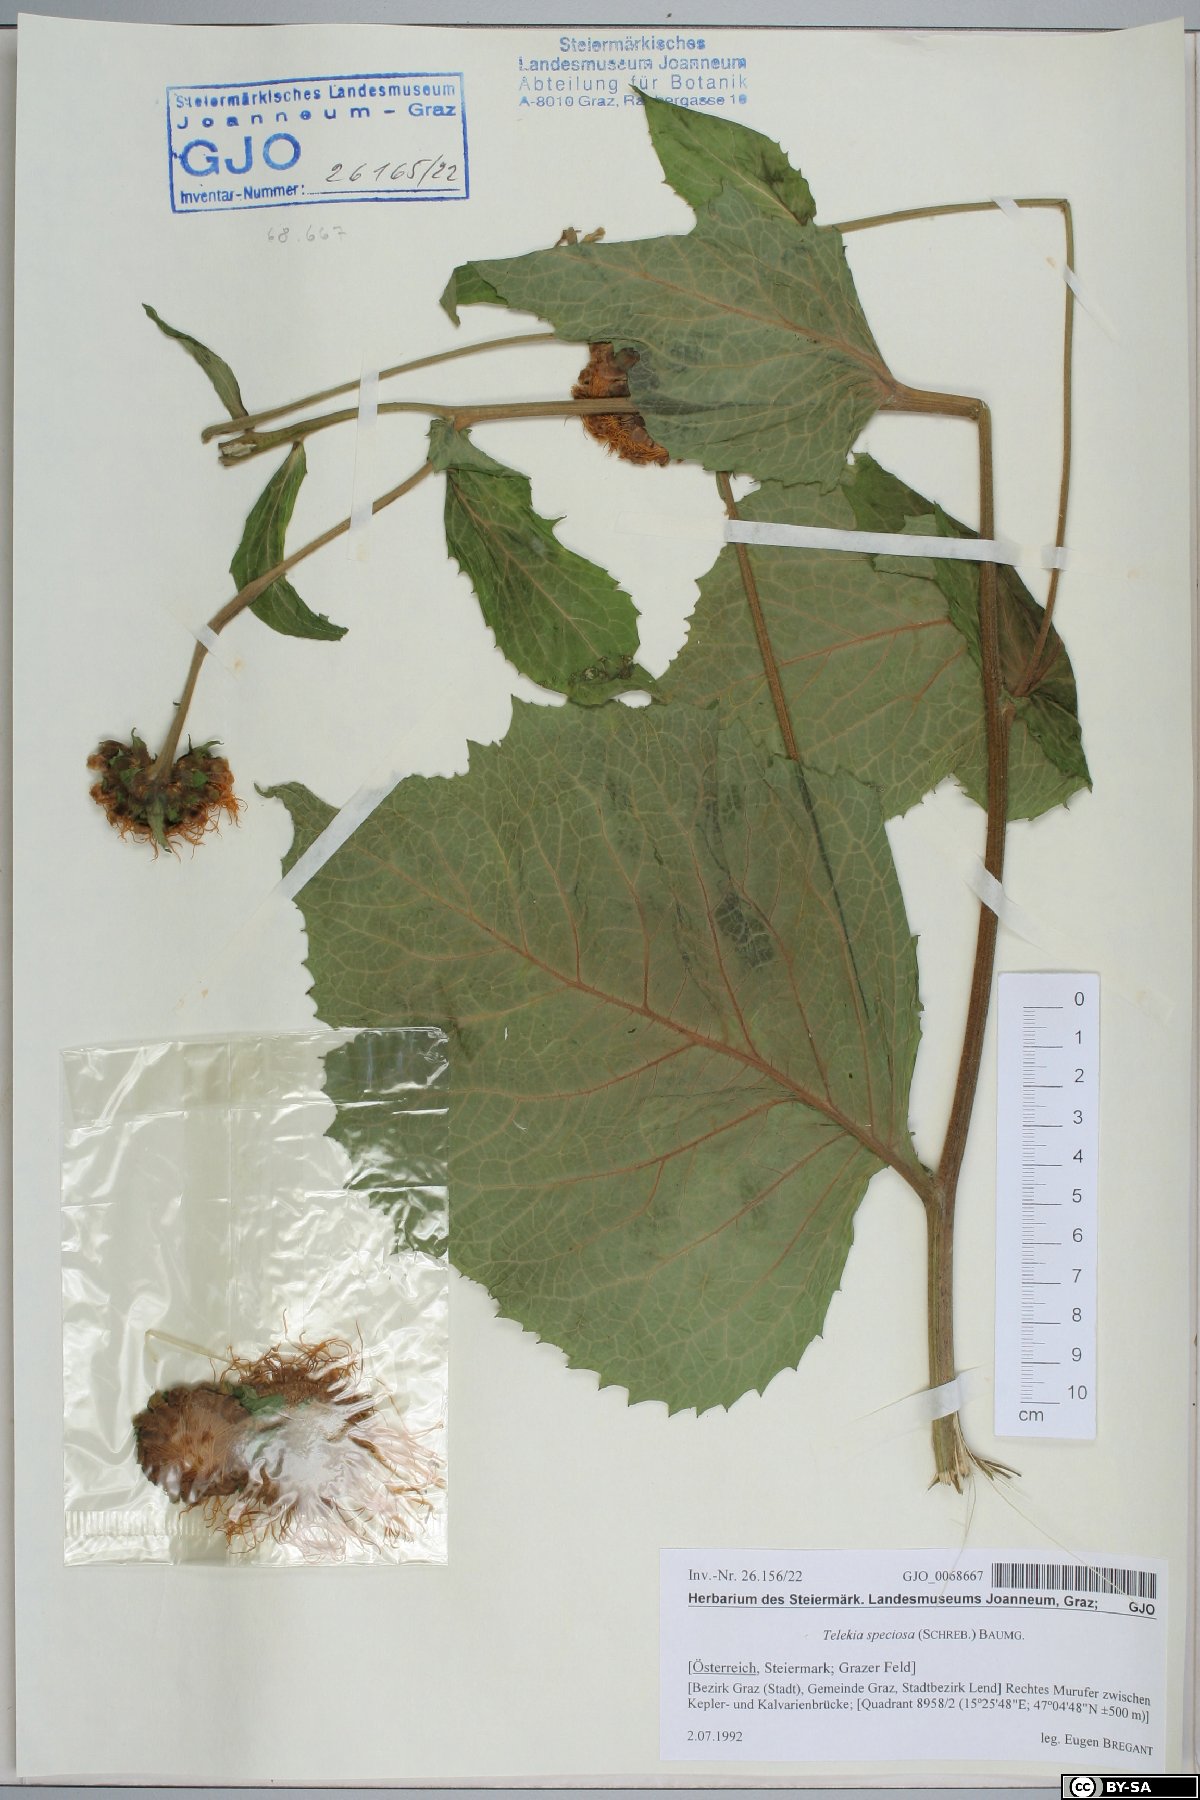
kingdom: Plantae
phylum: Tracheophyta
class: Magnoliopsida
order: Asterales
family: Asteraceae
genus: Telekia
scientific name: Telekia speciosa
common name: Yellow oxeye
